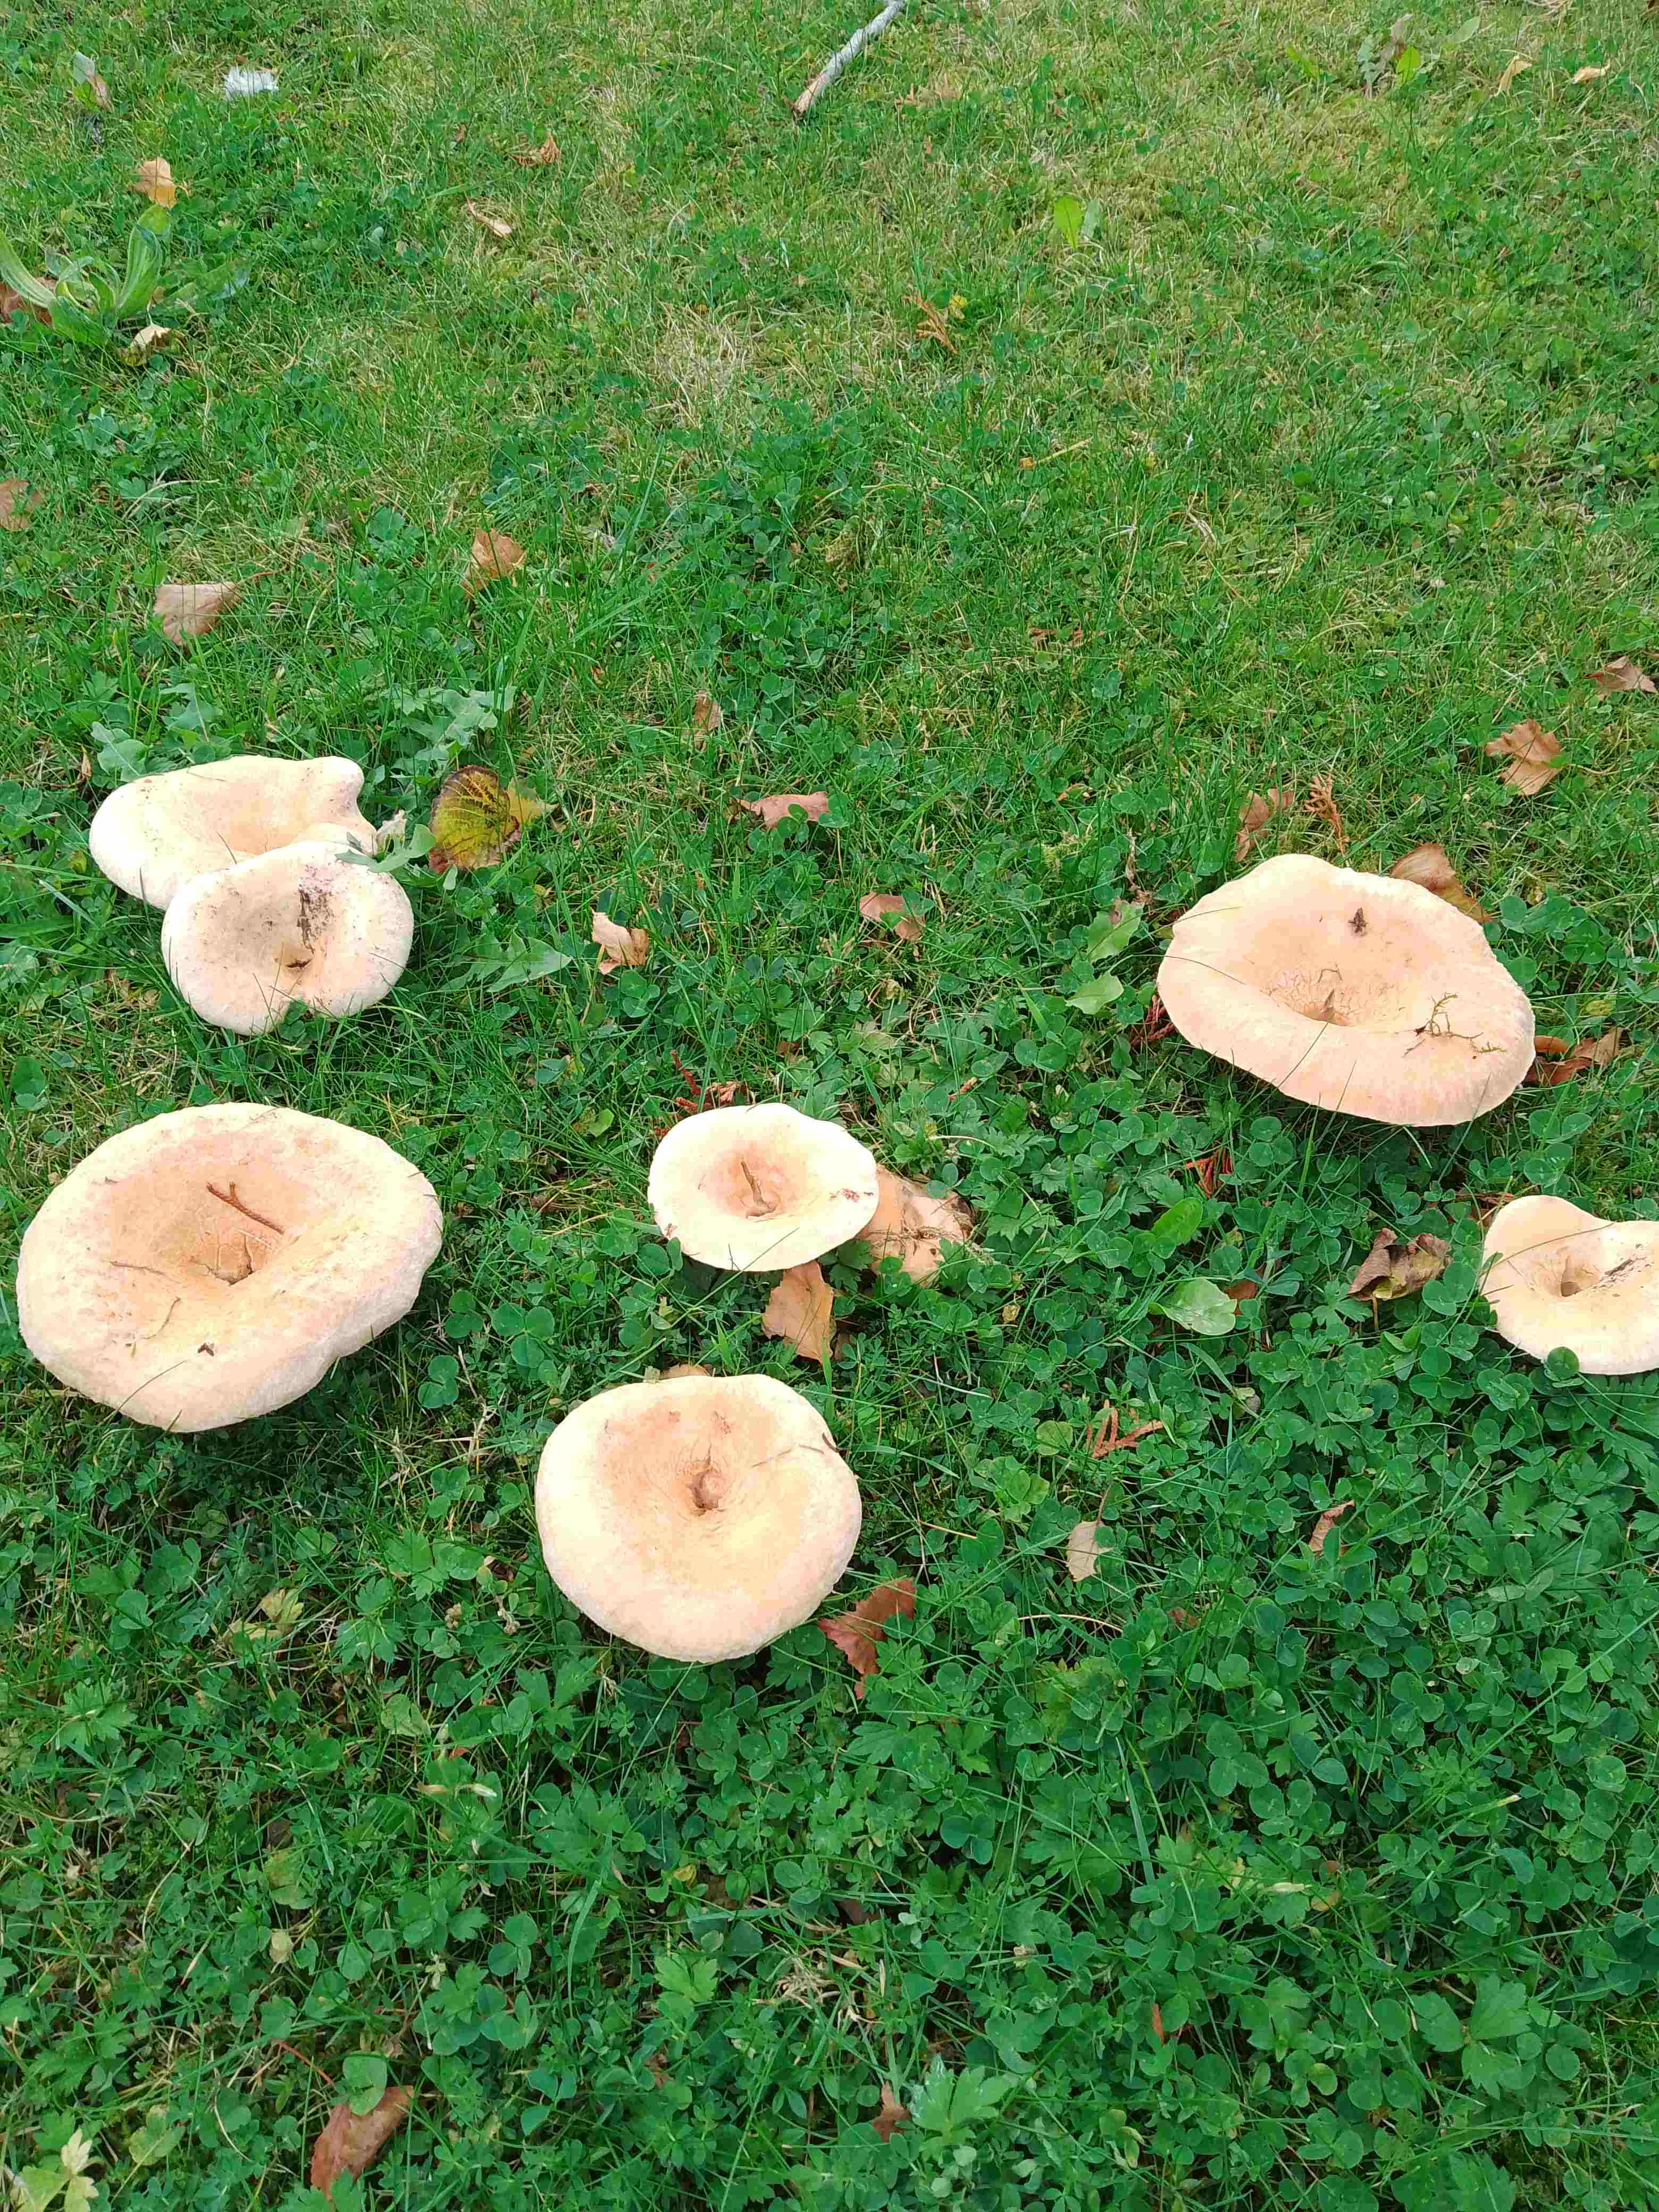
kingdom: Fungi
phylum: Basidiomycota
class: Agaricomycetes
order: Russulales
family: Russulaceae
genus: Lactarius
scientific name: Lactarius pubescens
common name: dunet mælkehat
